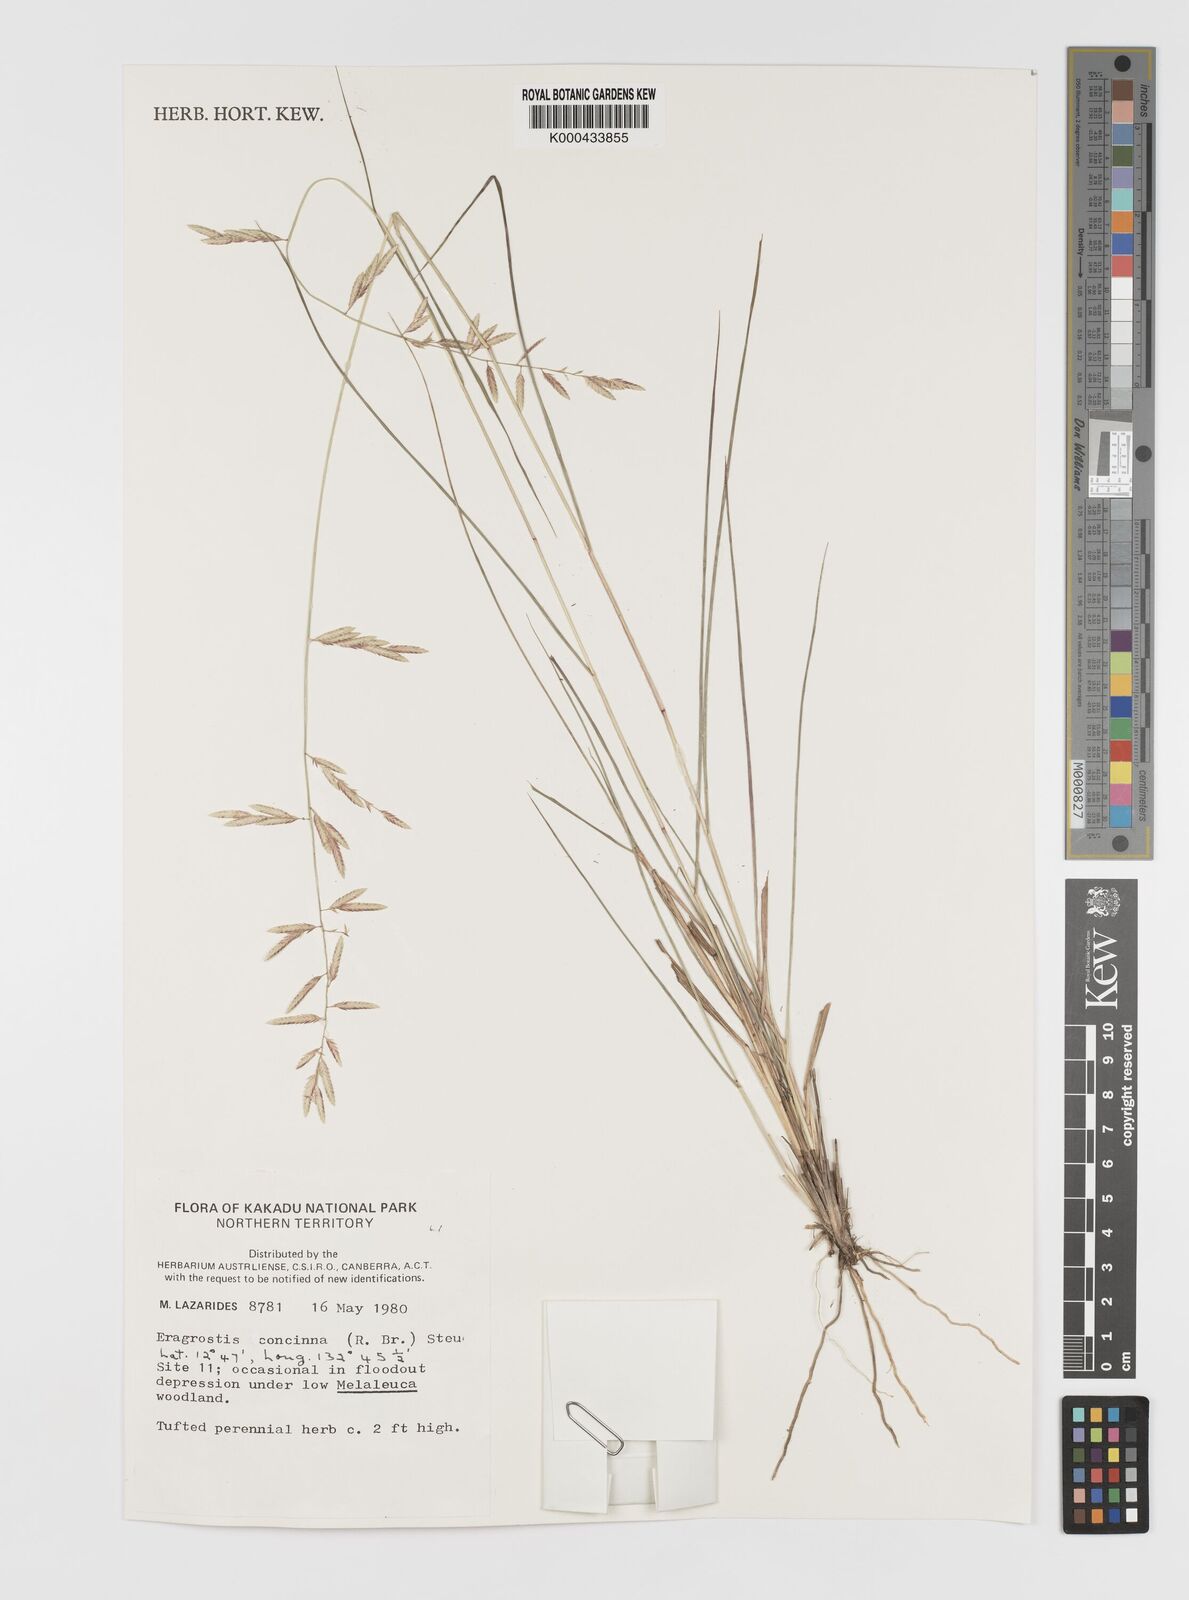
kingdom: Plantae
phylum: Tracheophyta
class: Liliopsida
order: Poales
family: Poaceae
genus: Eragrostis
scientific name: Eragrostis concinna
